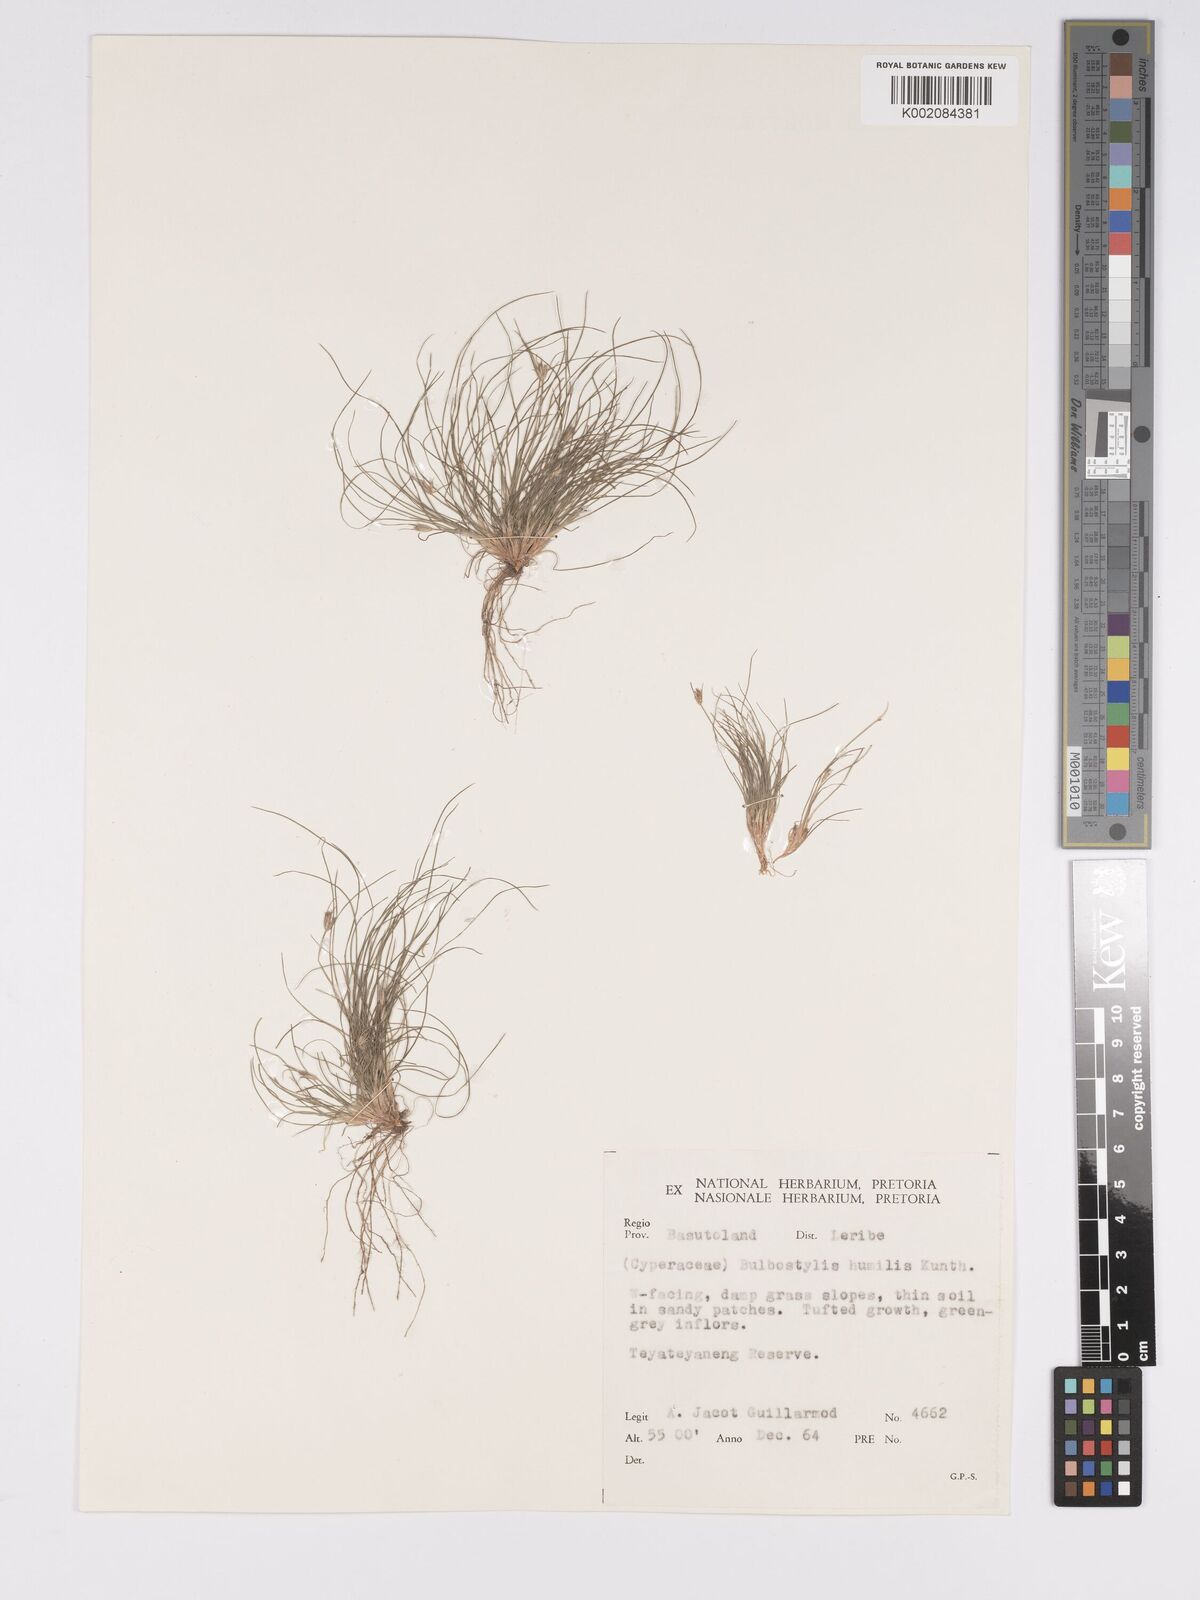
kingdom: Plantae
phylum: Tracheophyta
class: Liliopsida
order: Poales
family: Cyperaceae
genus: Bulbostylis
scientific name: Bulbostylis humilis
